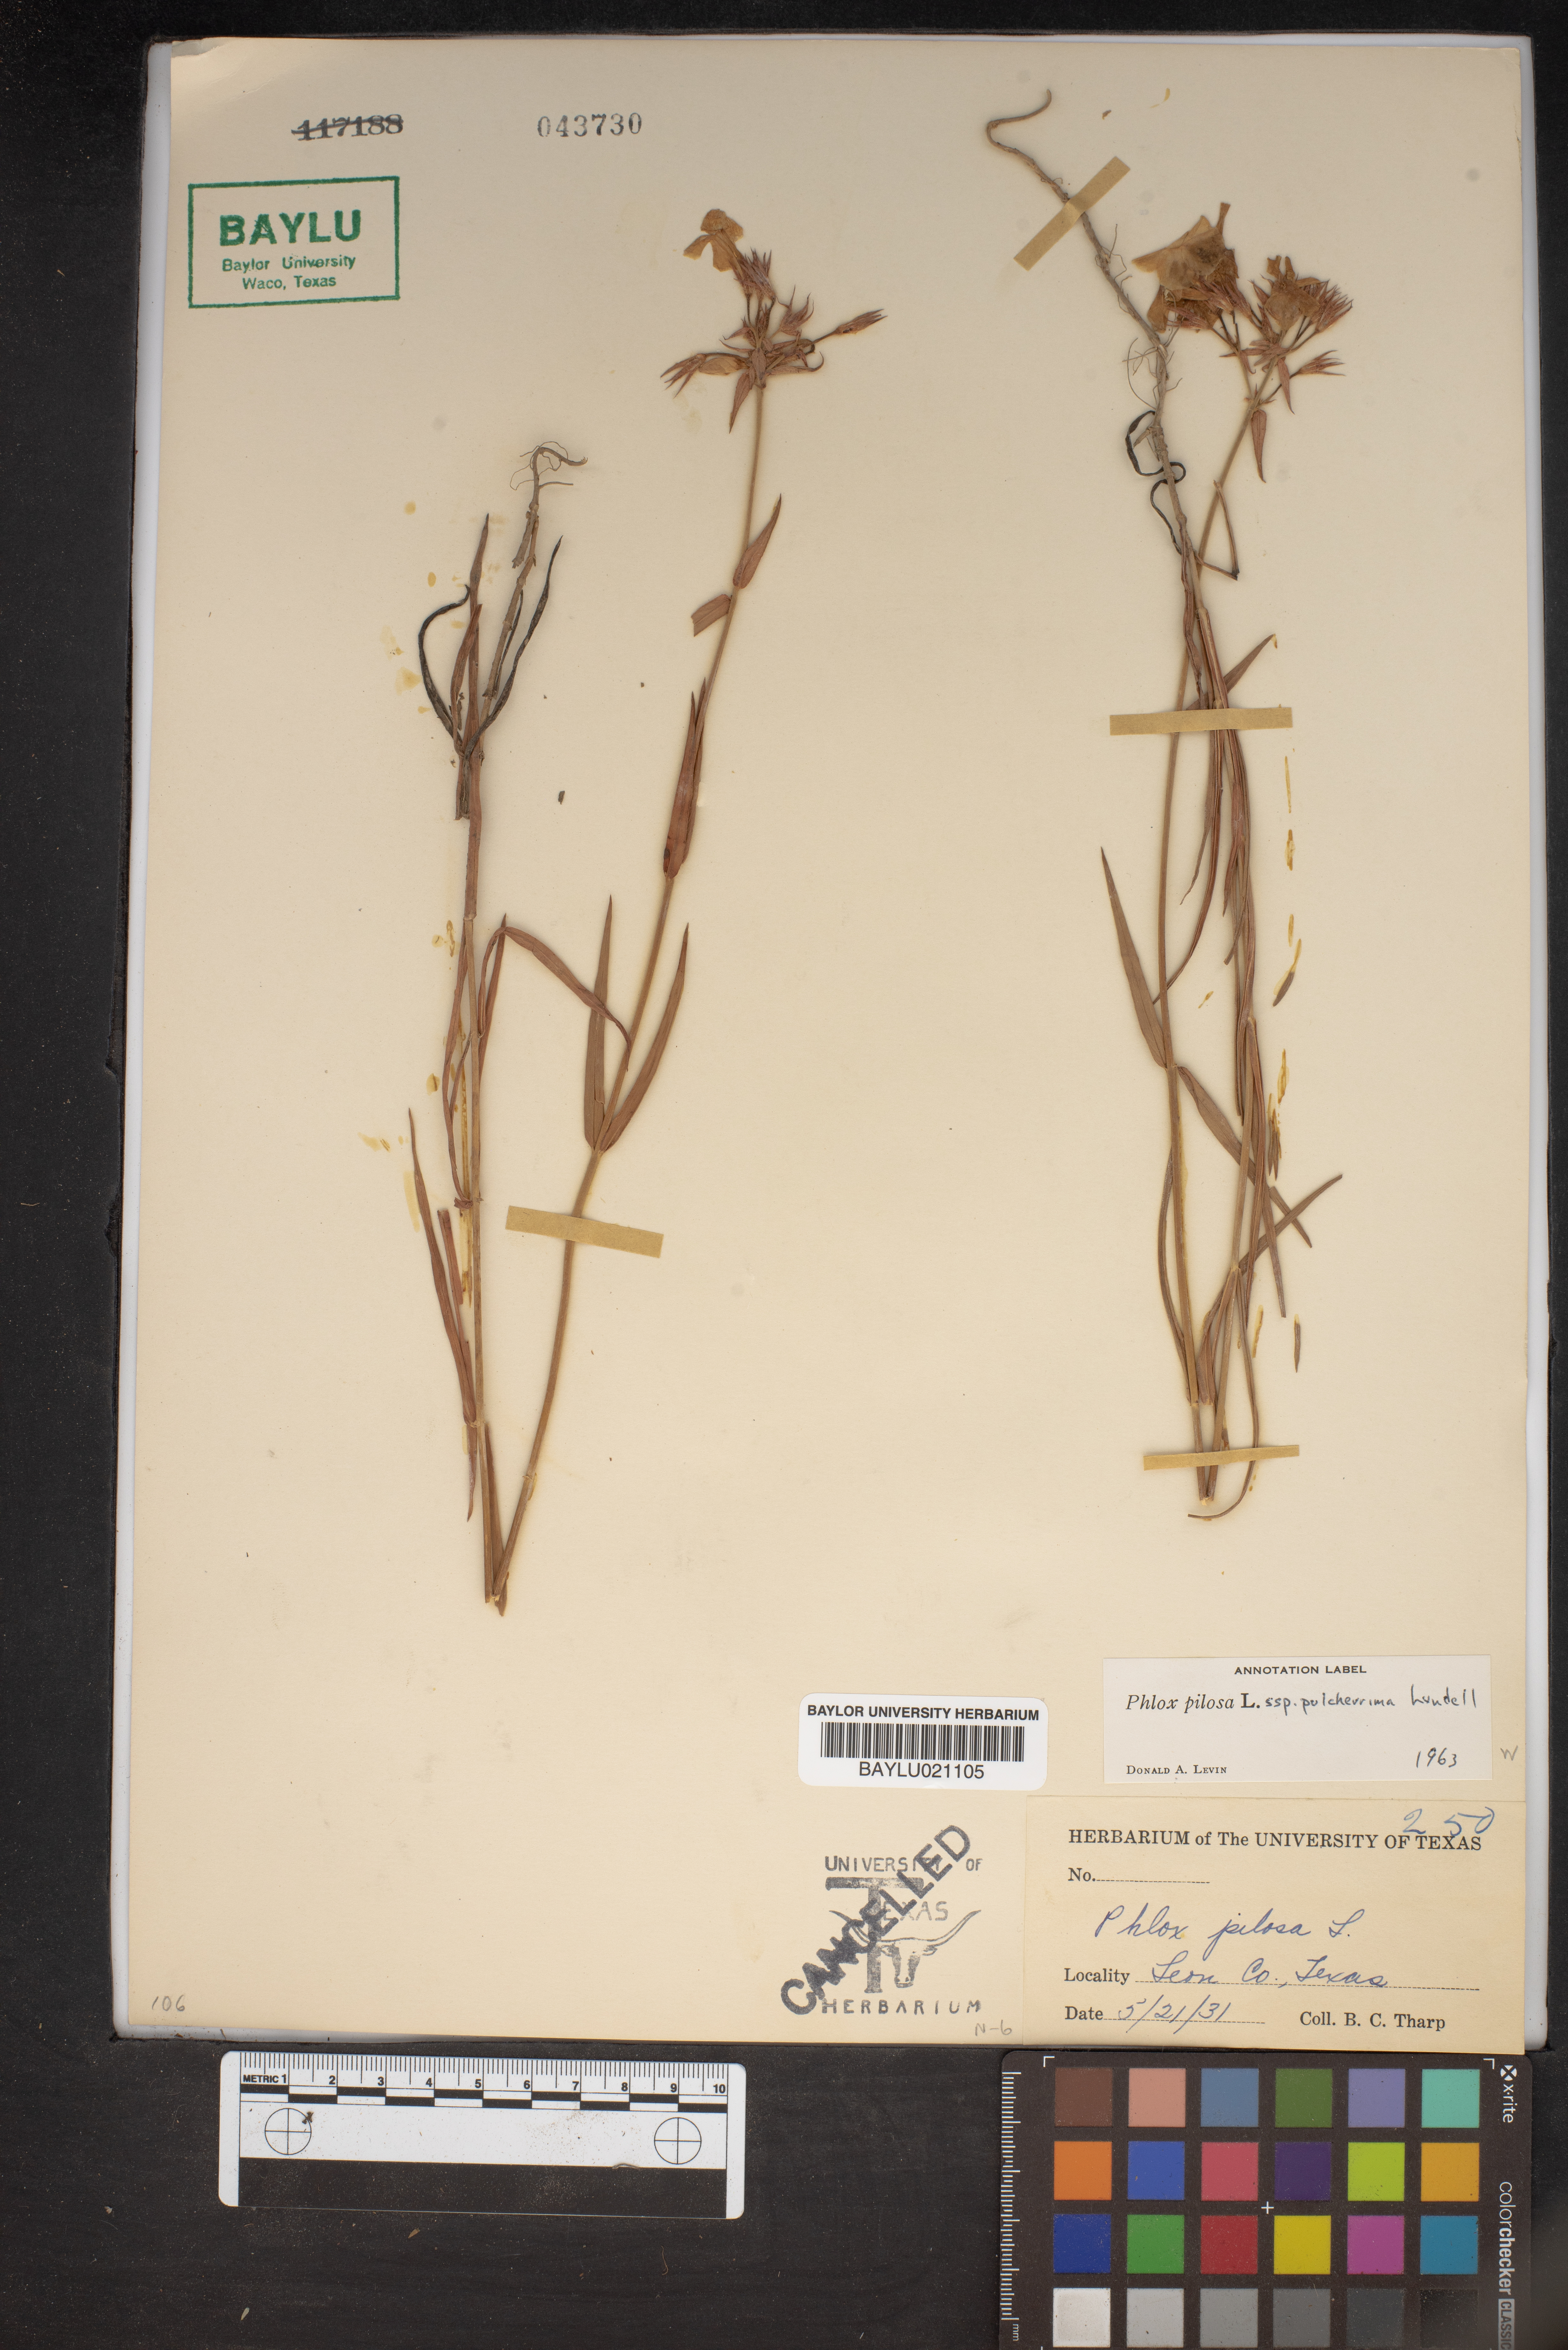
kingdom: Plantae
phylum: Tracheophyta
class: Magnoliopsida
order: Ericales
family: Polemoniaceae
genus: Phlox
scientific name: Phlox pilosa
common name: Prairie phlox
